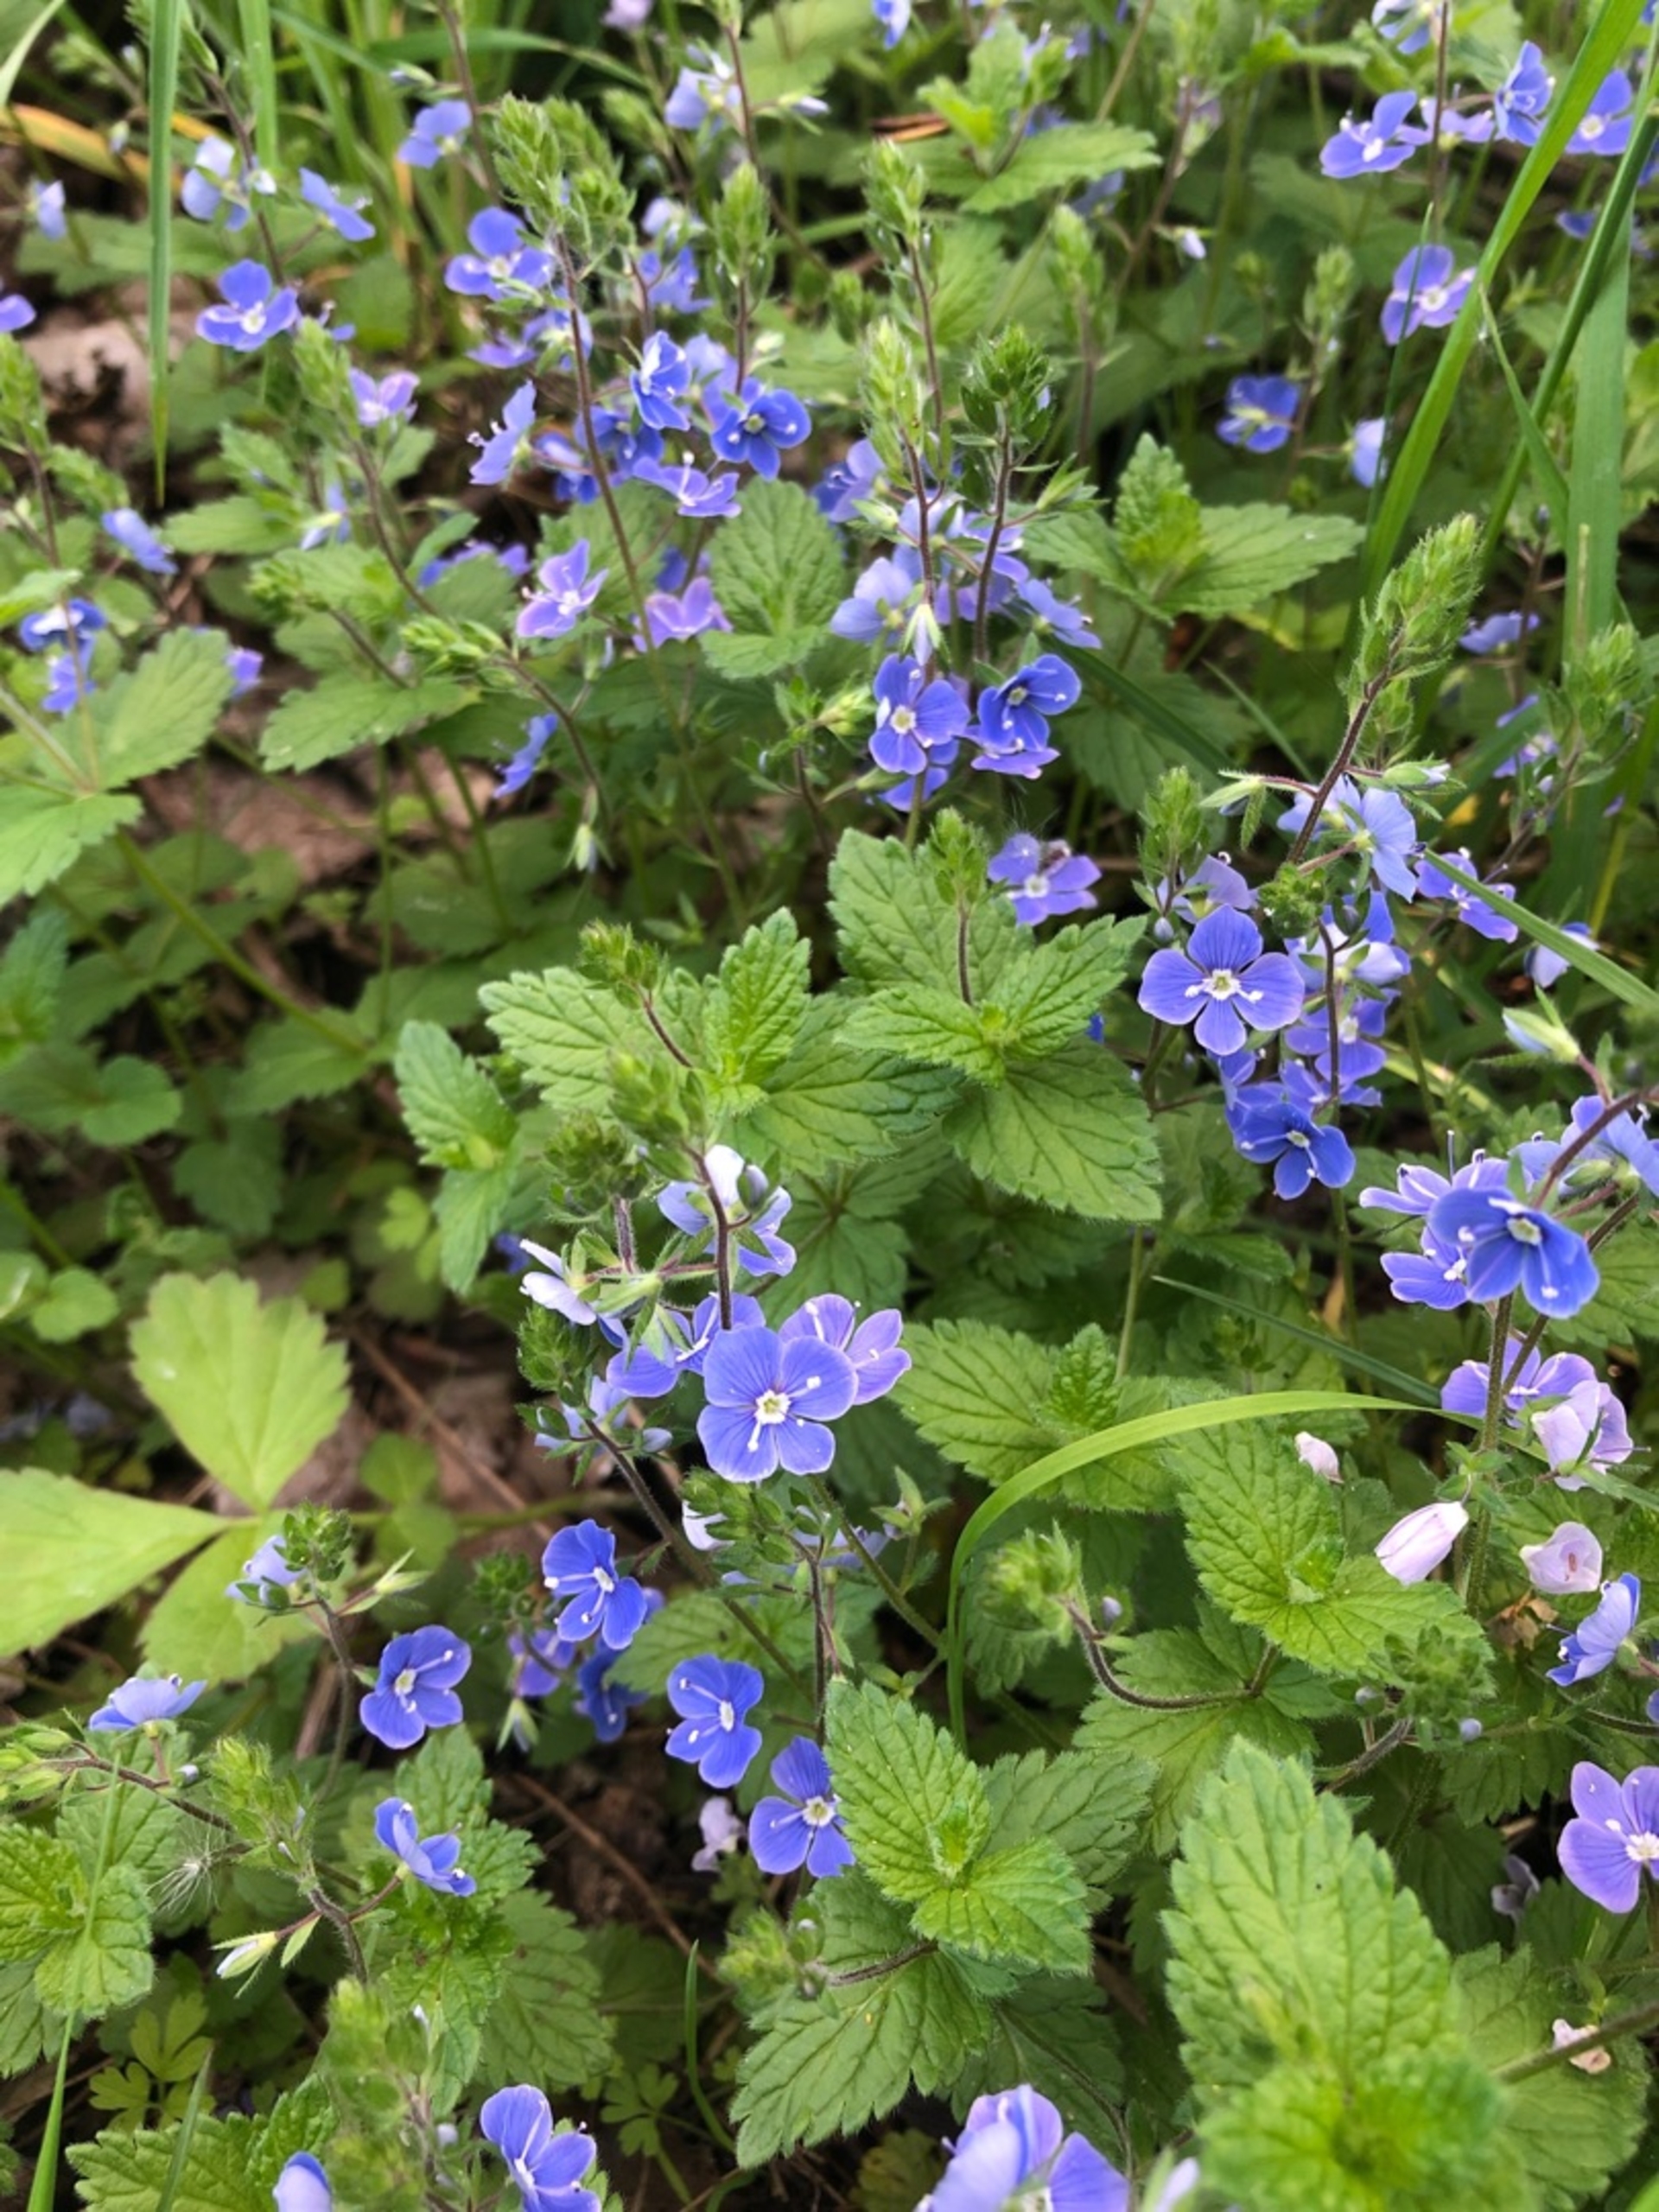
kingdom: Plantae
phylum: Tracheophyta
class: Magnoliopsida
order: Lamiales
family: Plantaginaceae
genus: Veronica
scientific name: Veronica chamaedrys
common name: Tveskægget ærenpris
